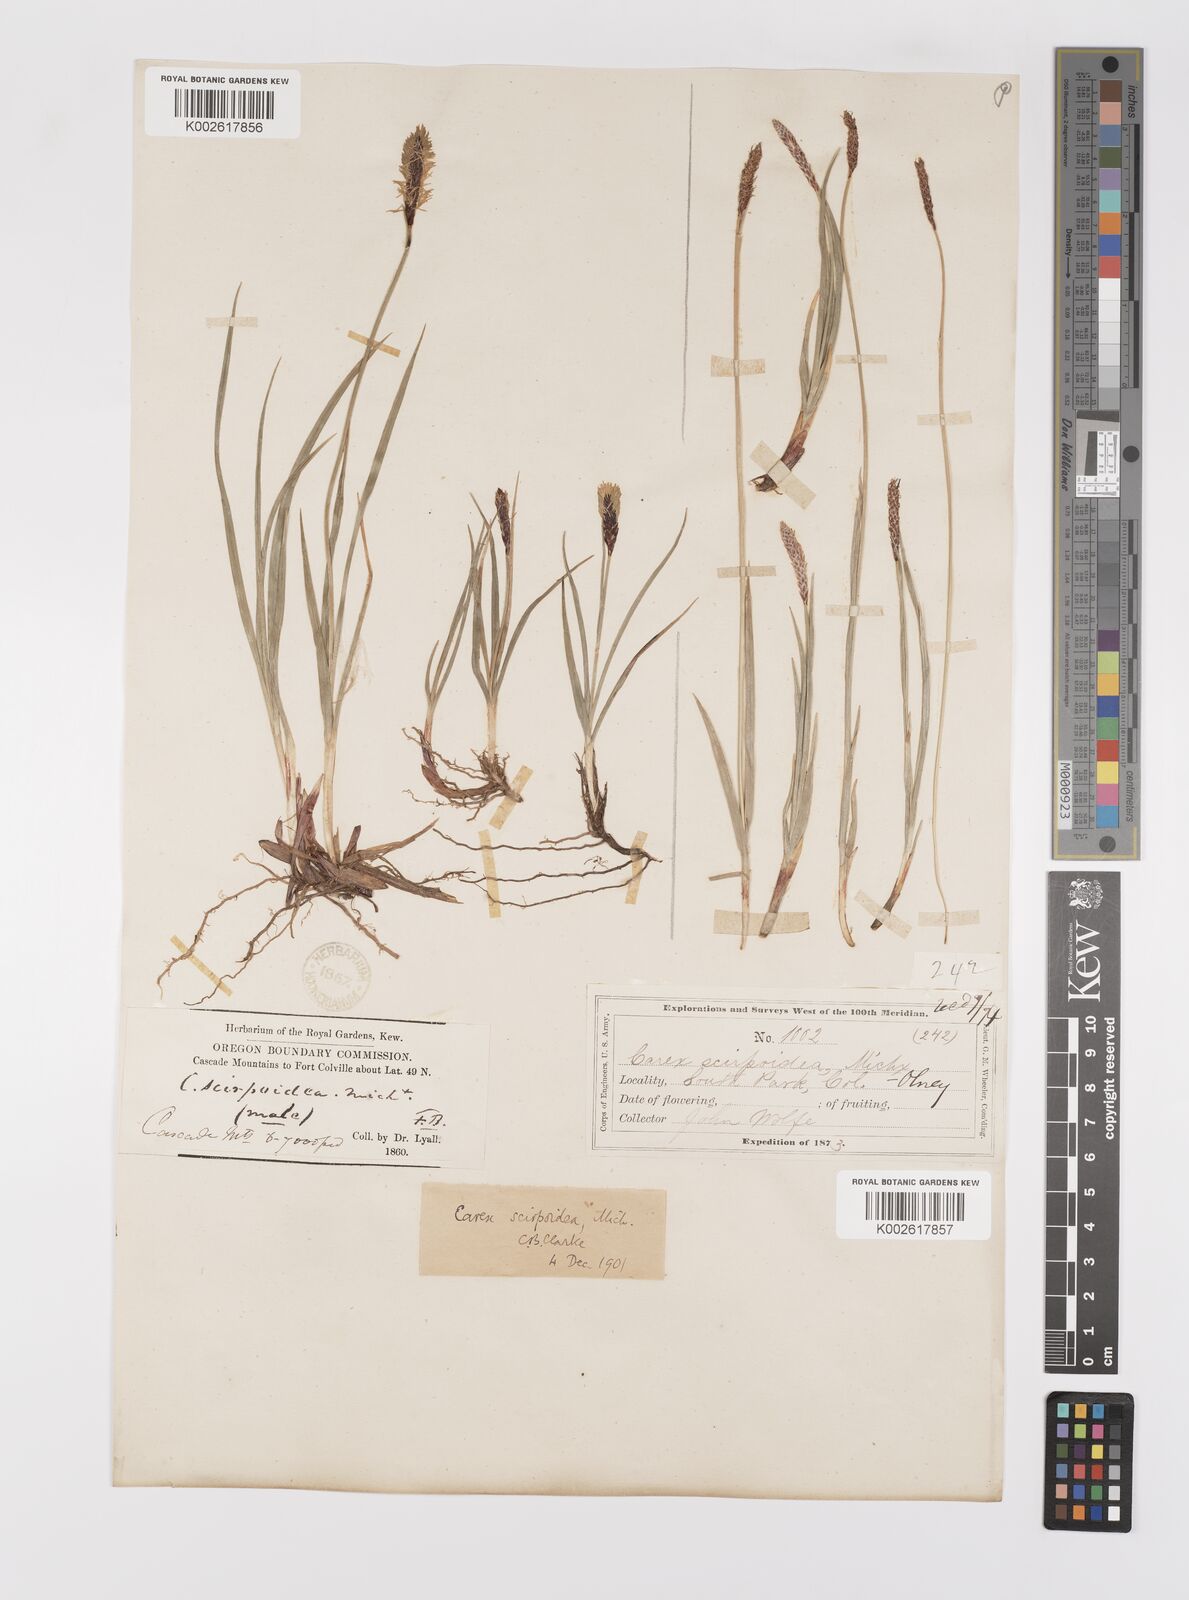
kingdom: Plantae
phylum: Tracheophyta
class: Liliopsida
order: Poales
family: Cyperaceae
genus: Carex
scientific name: Carex scirpoidea
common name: Canada single-spike sedge
